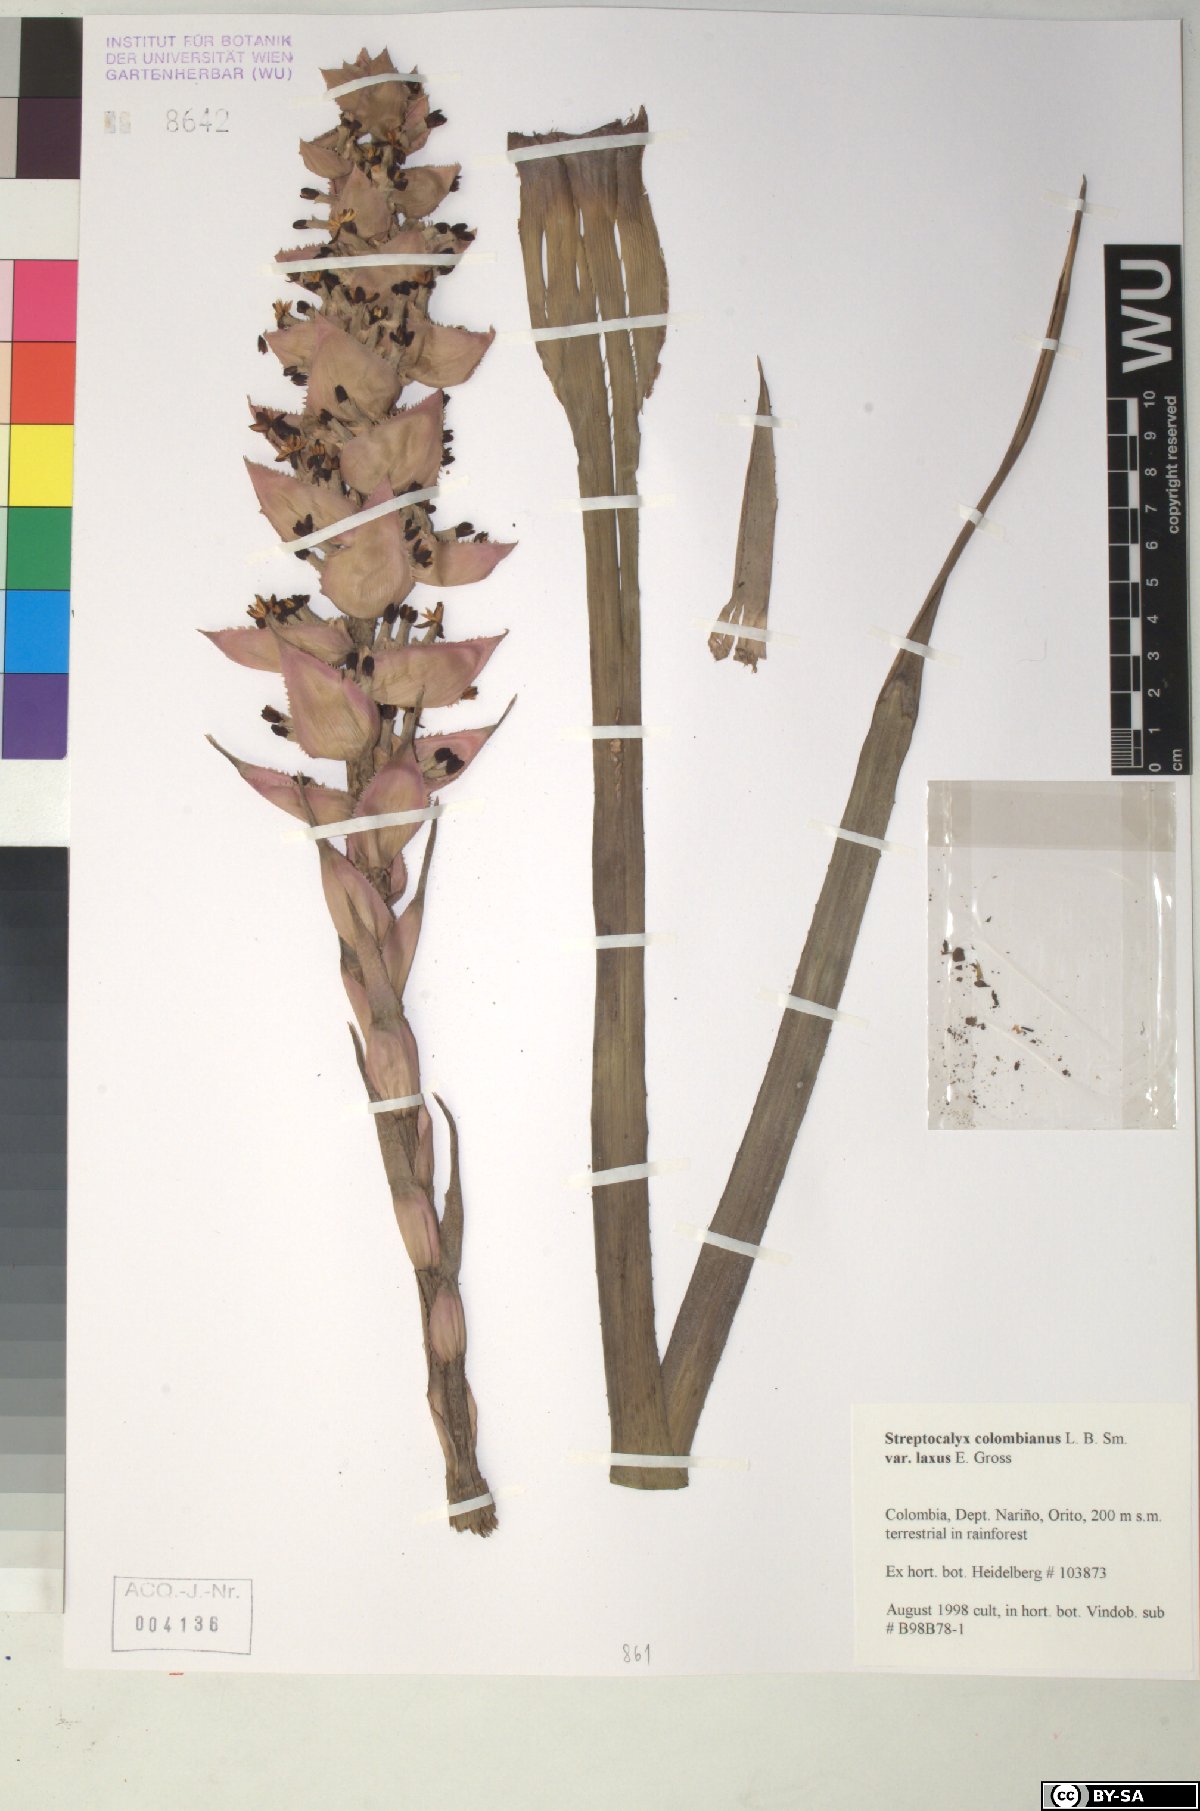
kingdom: Plantae
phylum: Tracheophyta
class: Liliopsida
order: Poales
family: Bromeliaceae
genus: Aechmea
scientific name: Aechmea hoppii
